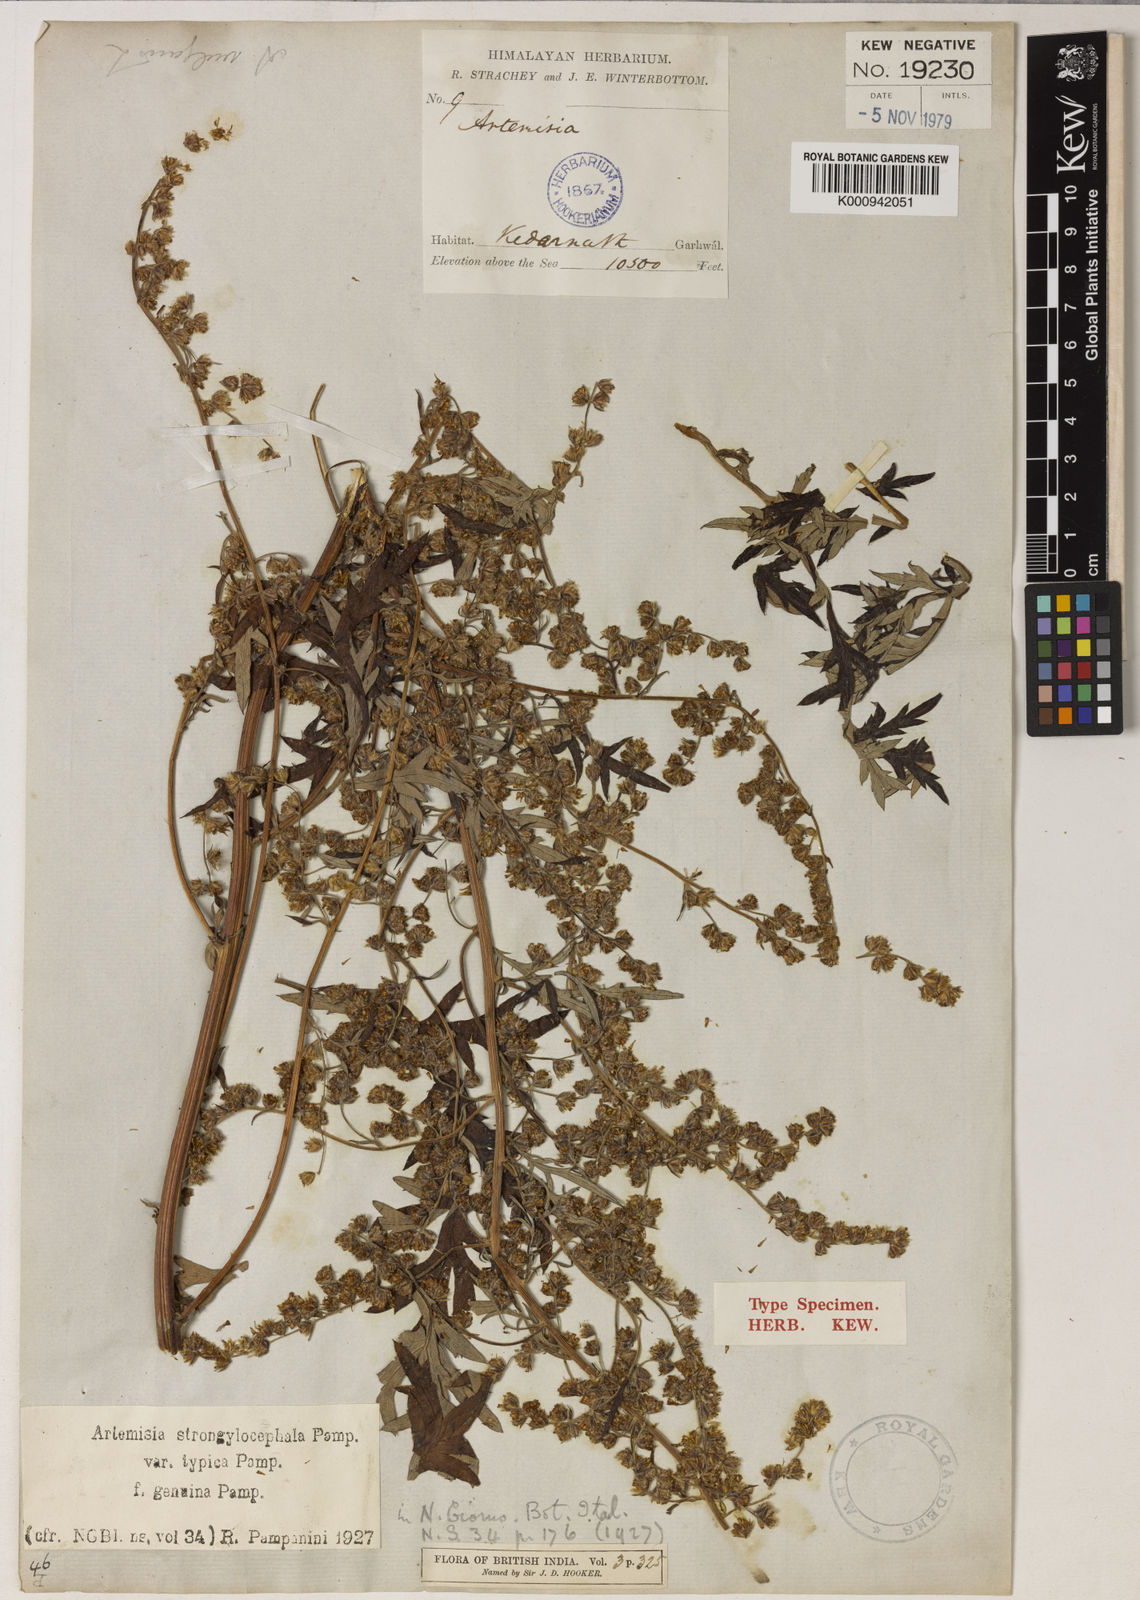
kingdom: Plantae
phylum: Tracheophyta
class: Magnoliopsida
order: Asterales
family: Asteraceae
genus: Artemisia
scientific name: Artemisia moorcroftiana
